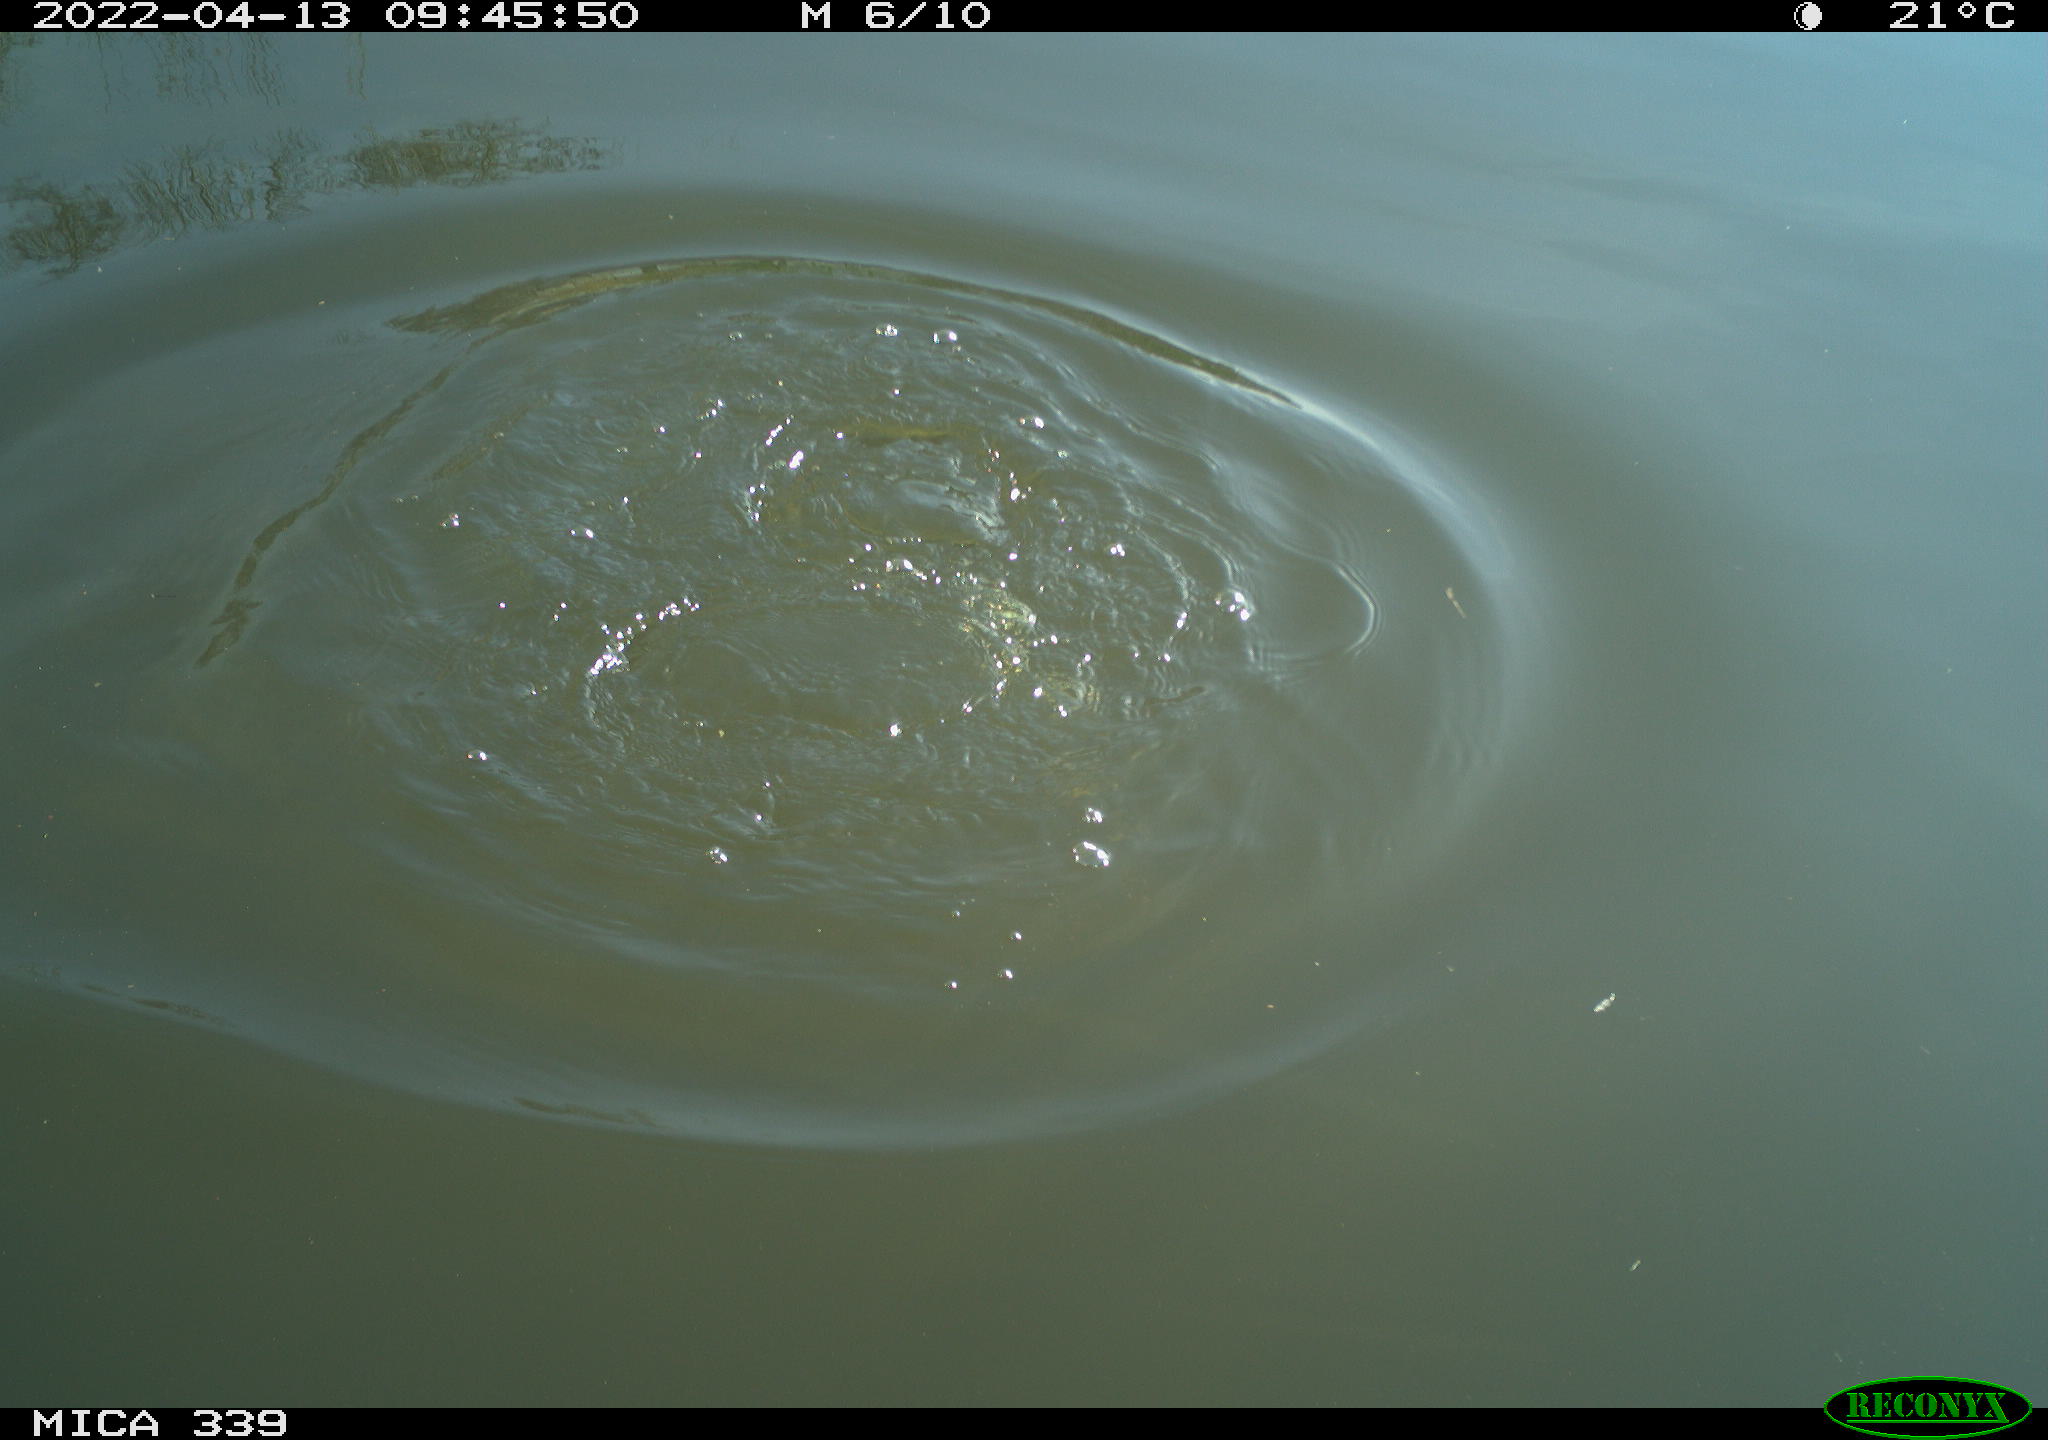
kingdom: Animalia
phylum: Chordata
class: Aves
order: Gruiformes
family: Rallidae
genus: Fulica
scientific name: Fulica atra
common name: Eurasian coot
